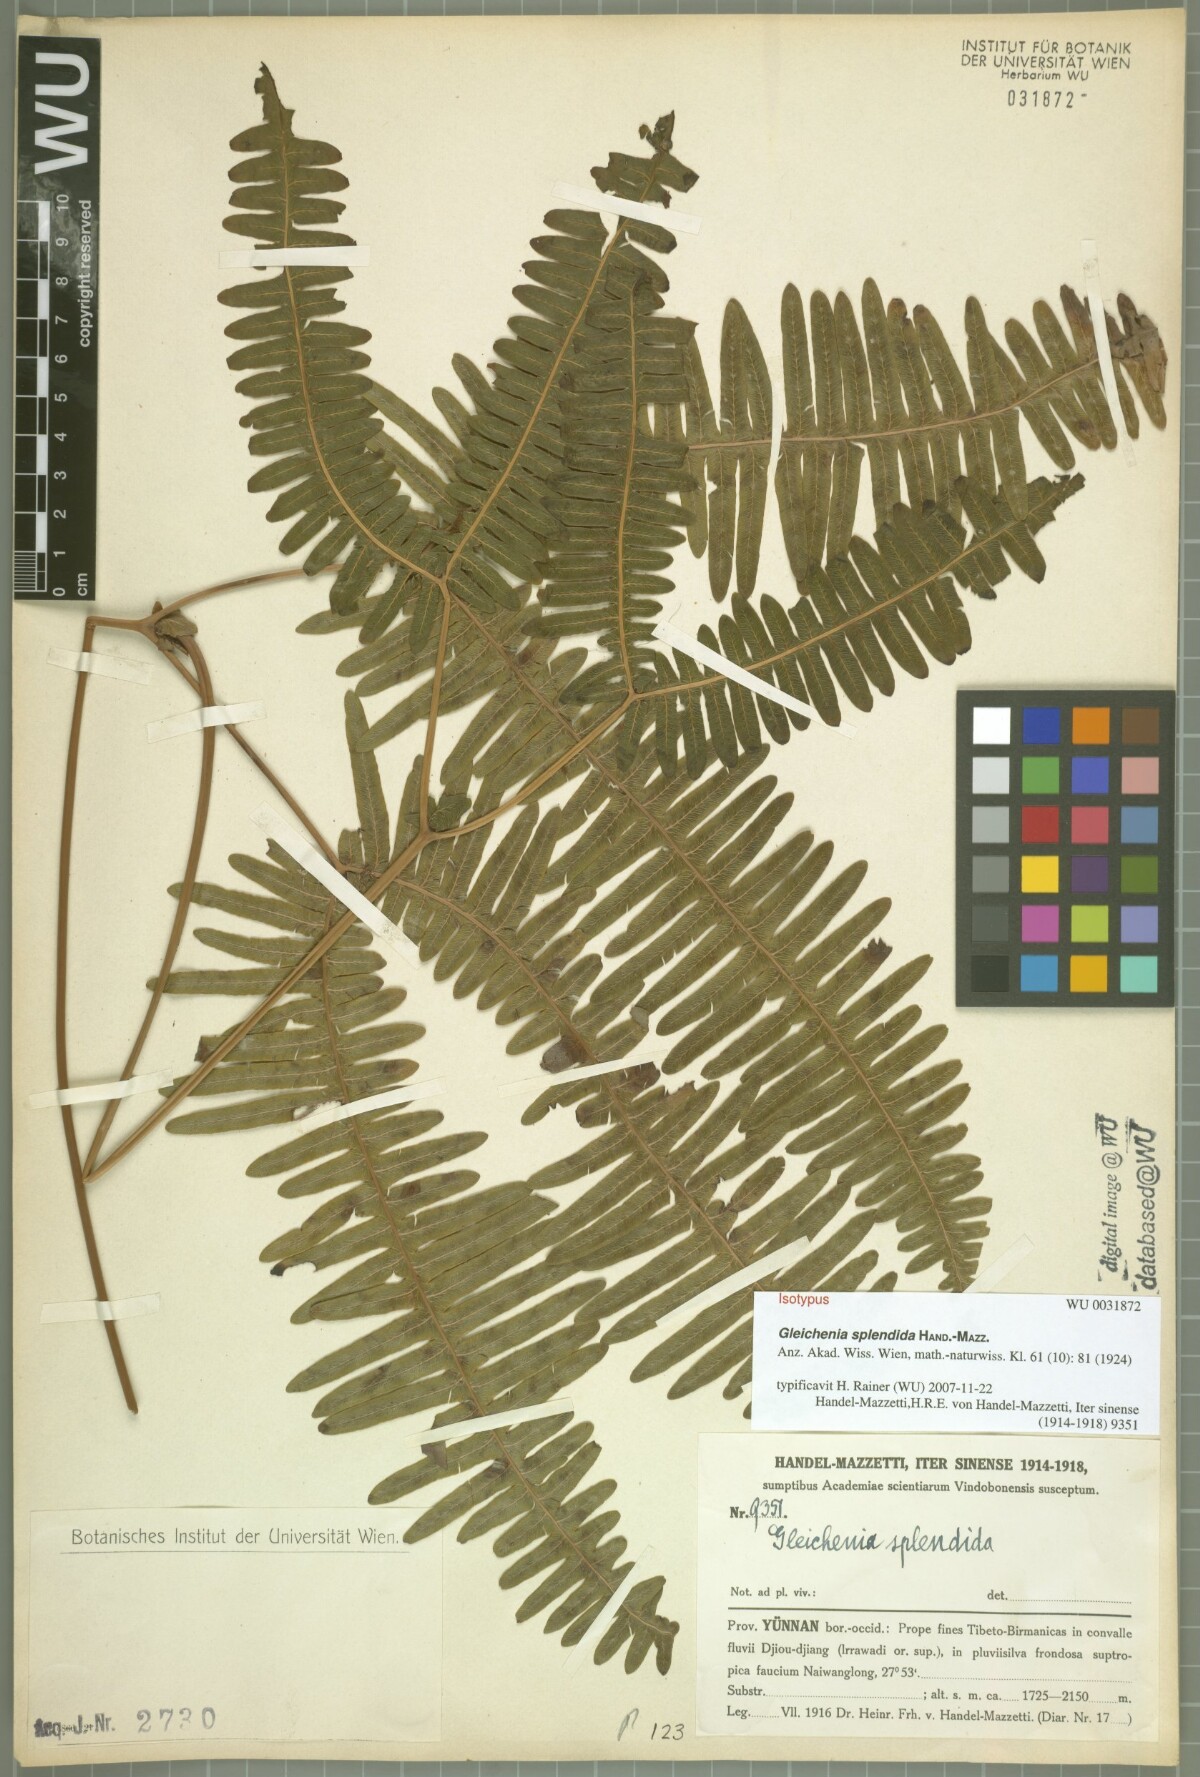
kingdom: Plantae
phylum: Tracheophyta
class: Polypodiopsida
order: Gleicheniales
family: Gleicheniaceae
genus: Dicranopteris
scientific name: Dicranopteris splendida
